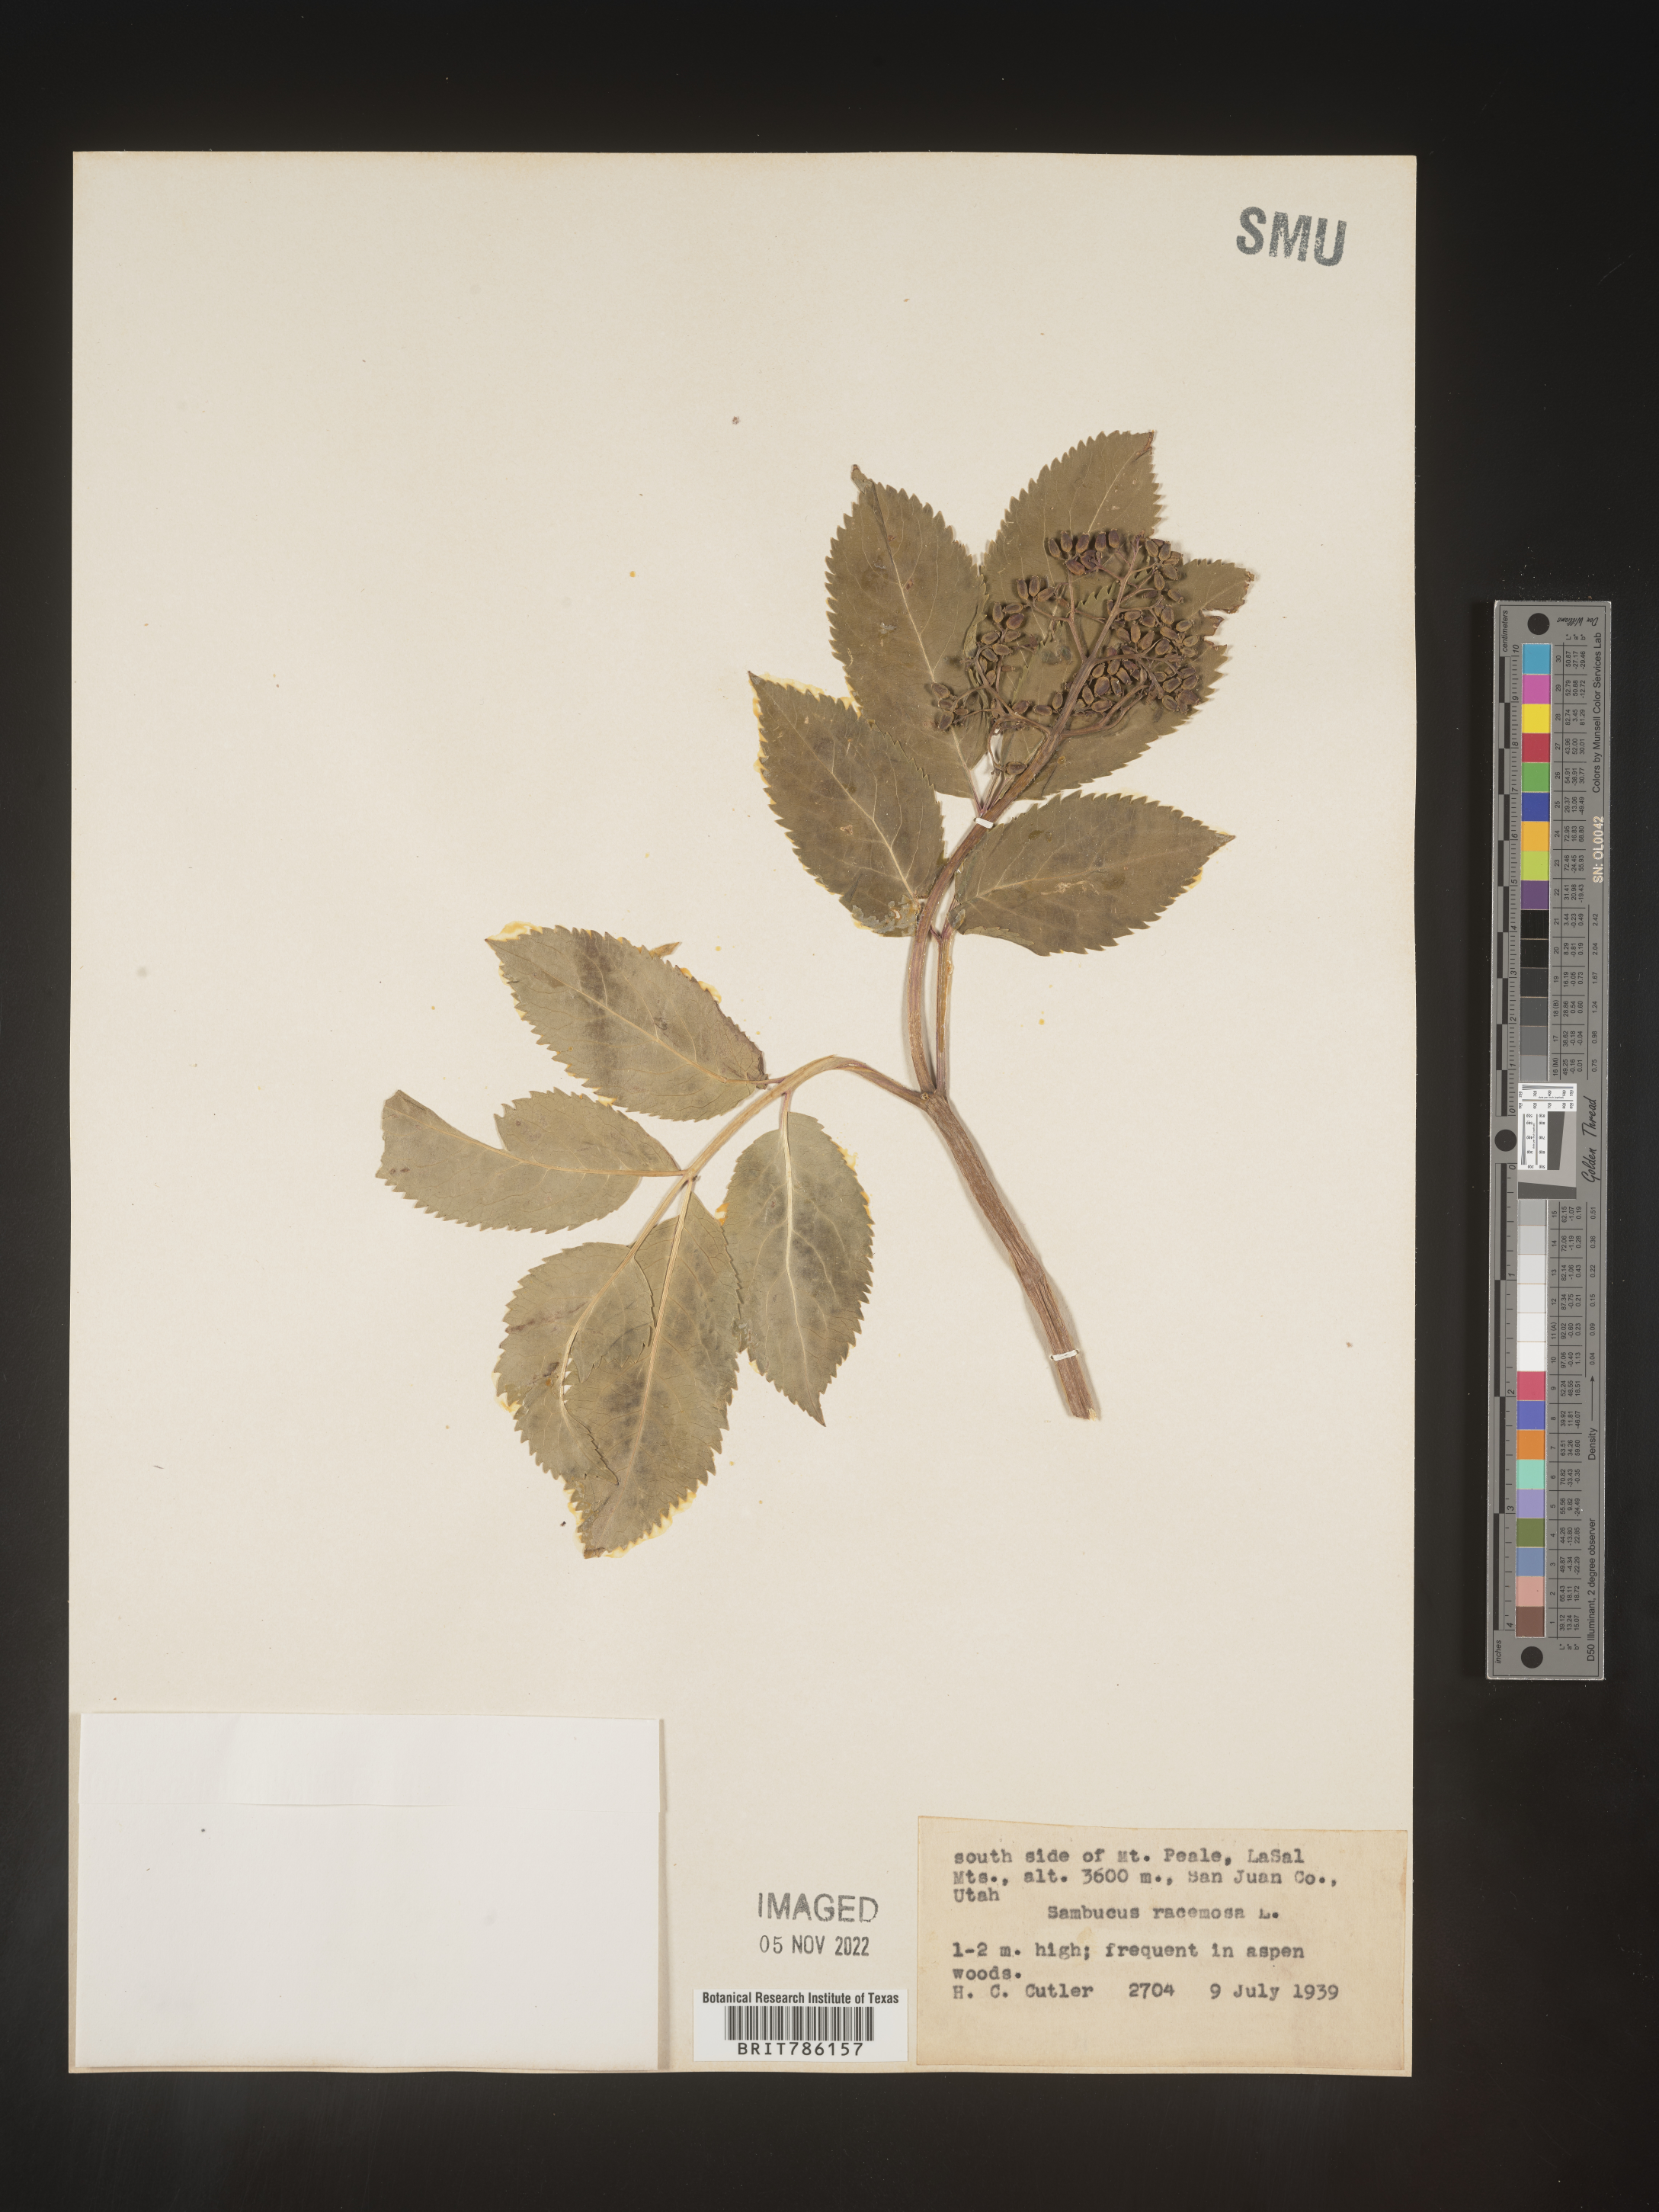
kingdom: Plantae
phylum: Tracheophyta
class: Magnoliopsida
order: Dipsacales
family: Viburnaceae
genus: Sambucus
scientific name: Sambucus
